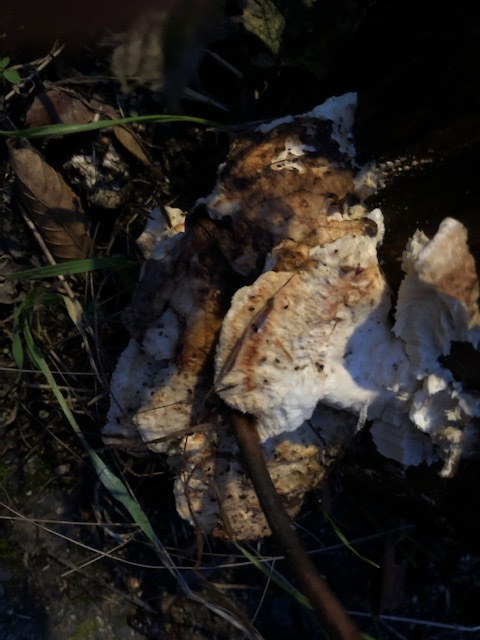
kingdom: Fungi
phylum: Basidiomycota
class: Agaricomycetes
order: Polyporales
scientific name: Polyporales
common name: poresvampordenen
